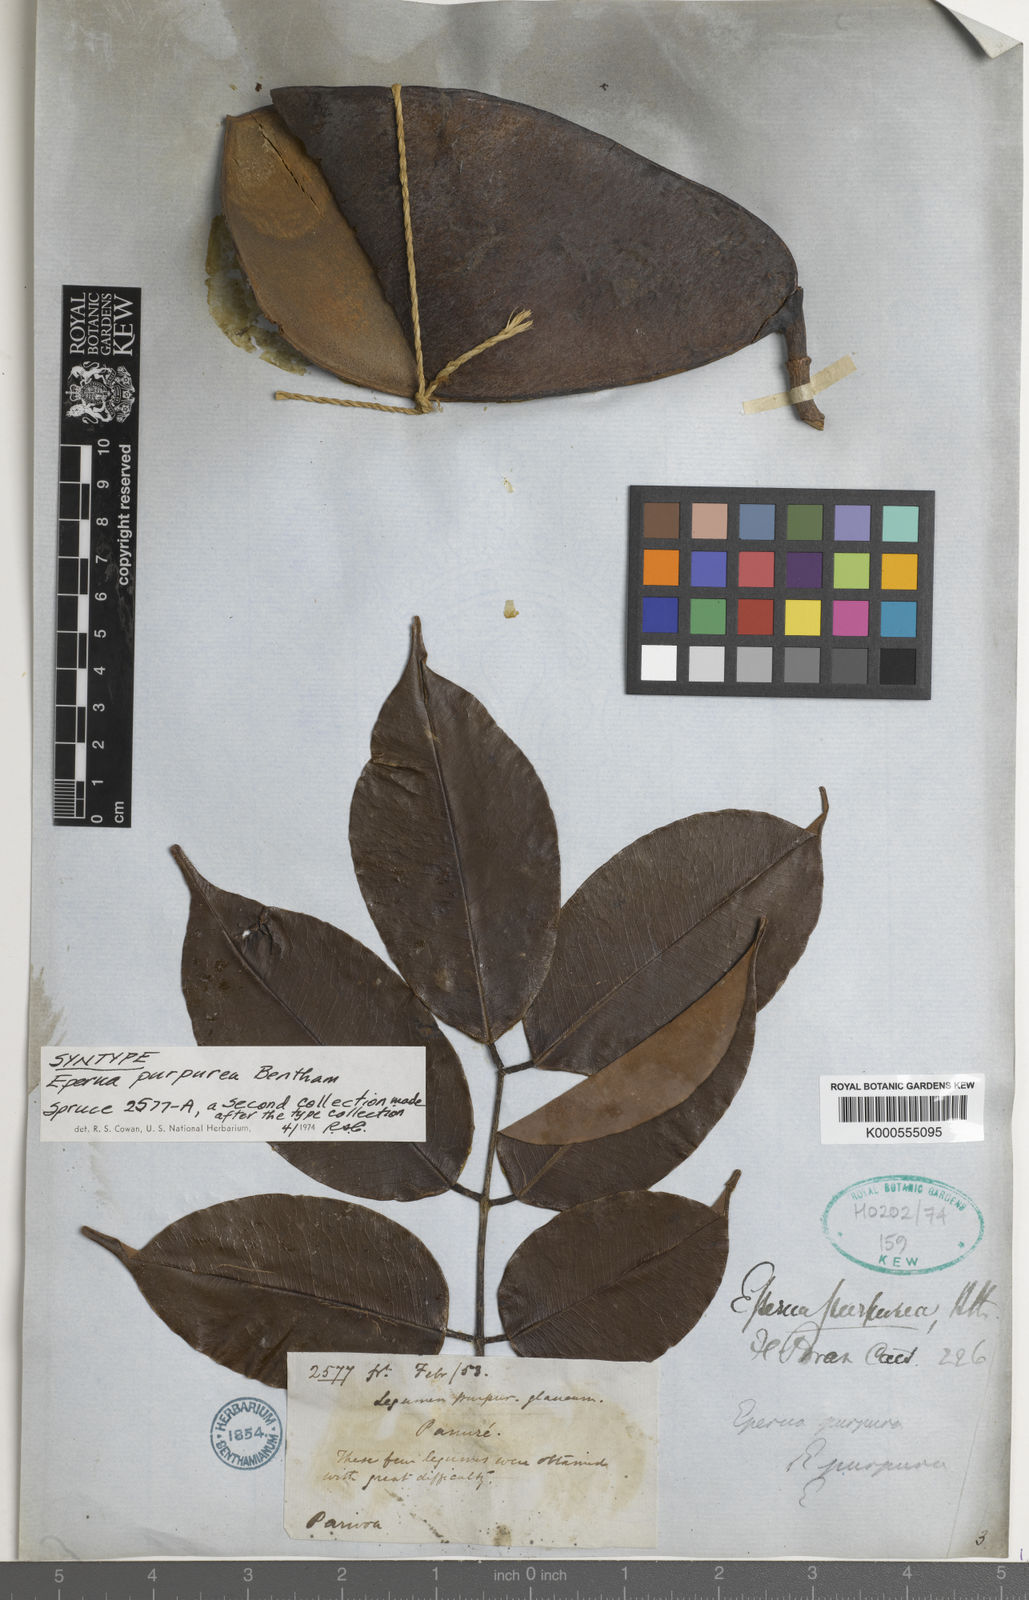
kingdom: Plantae
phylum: Tracheophyta
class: Magnoliopsida
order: Fabales
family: Fabaceae
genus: Eperua
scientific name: Eperua purpurea
